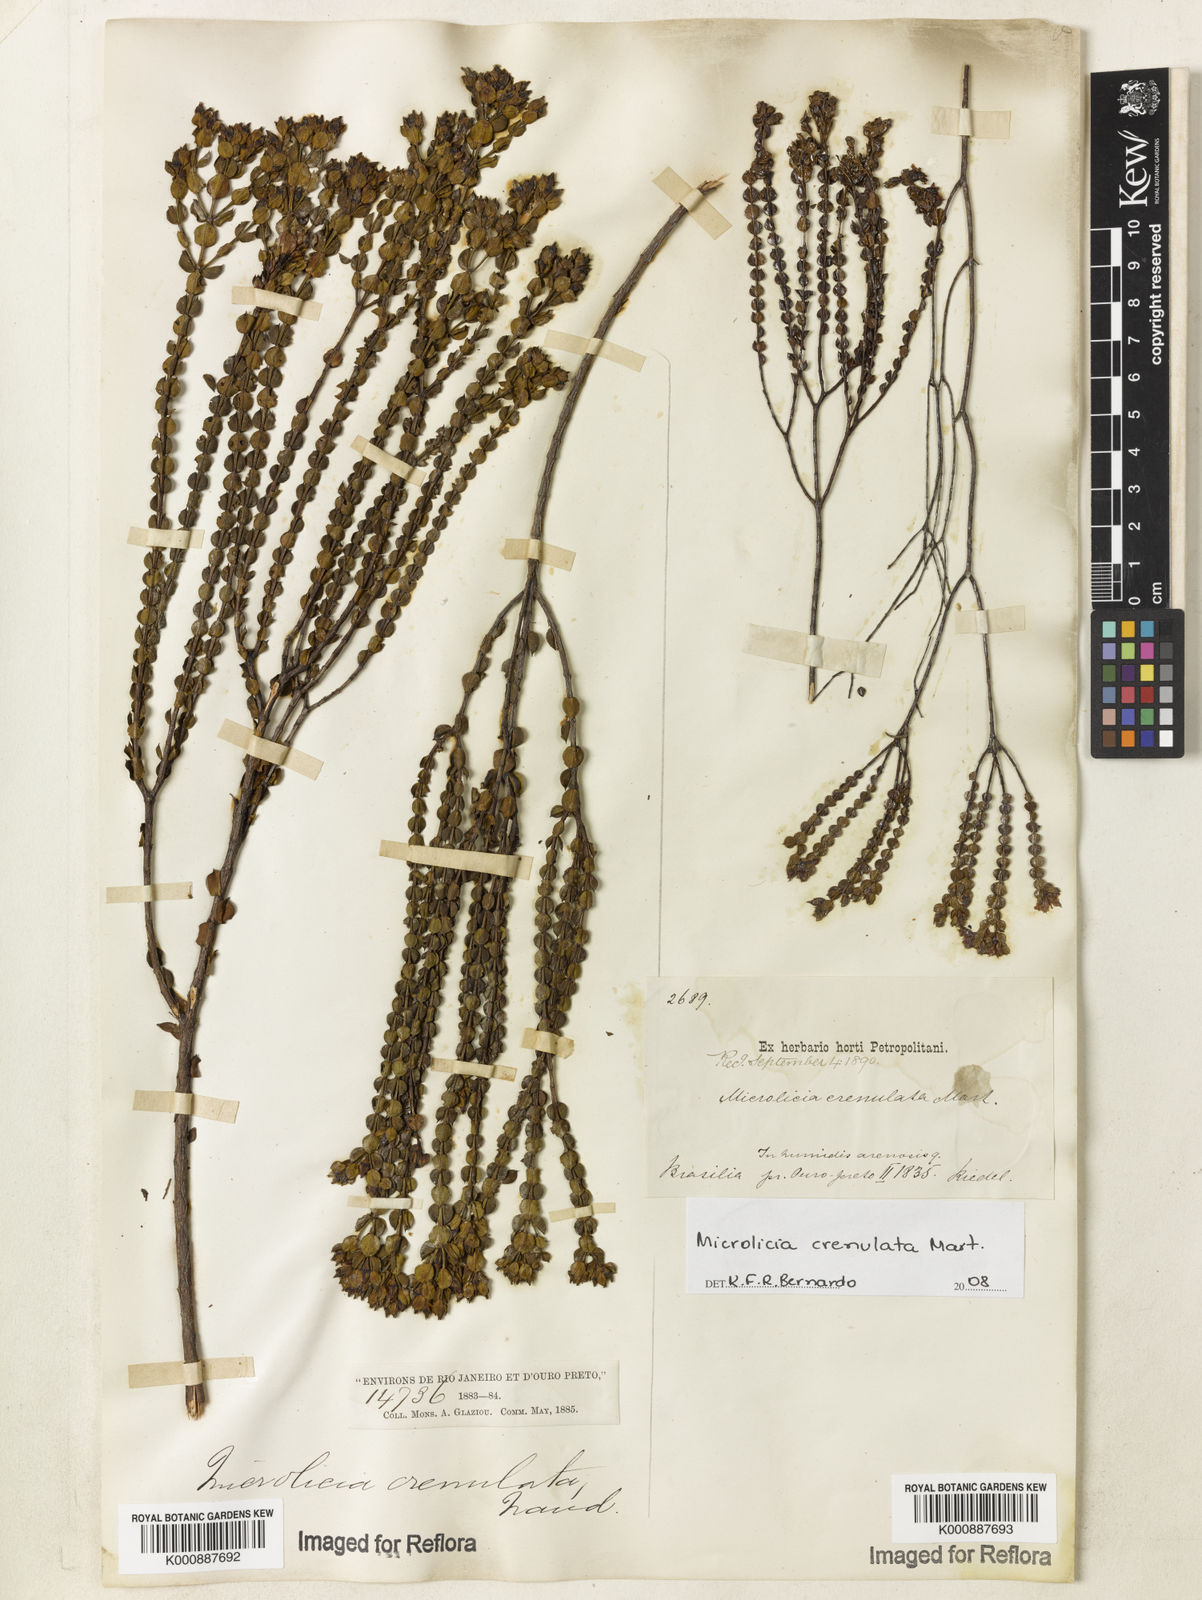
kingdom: Plantae
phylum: Tracheophyta
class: Magnoliopsida
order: Myrtales
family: Melastomataceae
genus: Microlicia
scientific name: Microlicia crenulata
